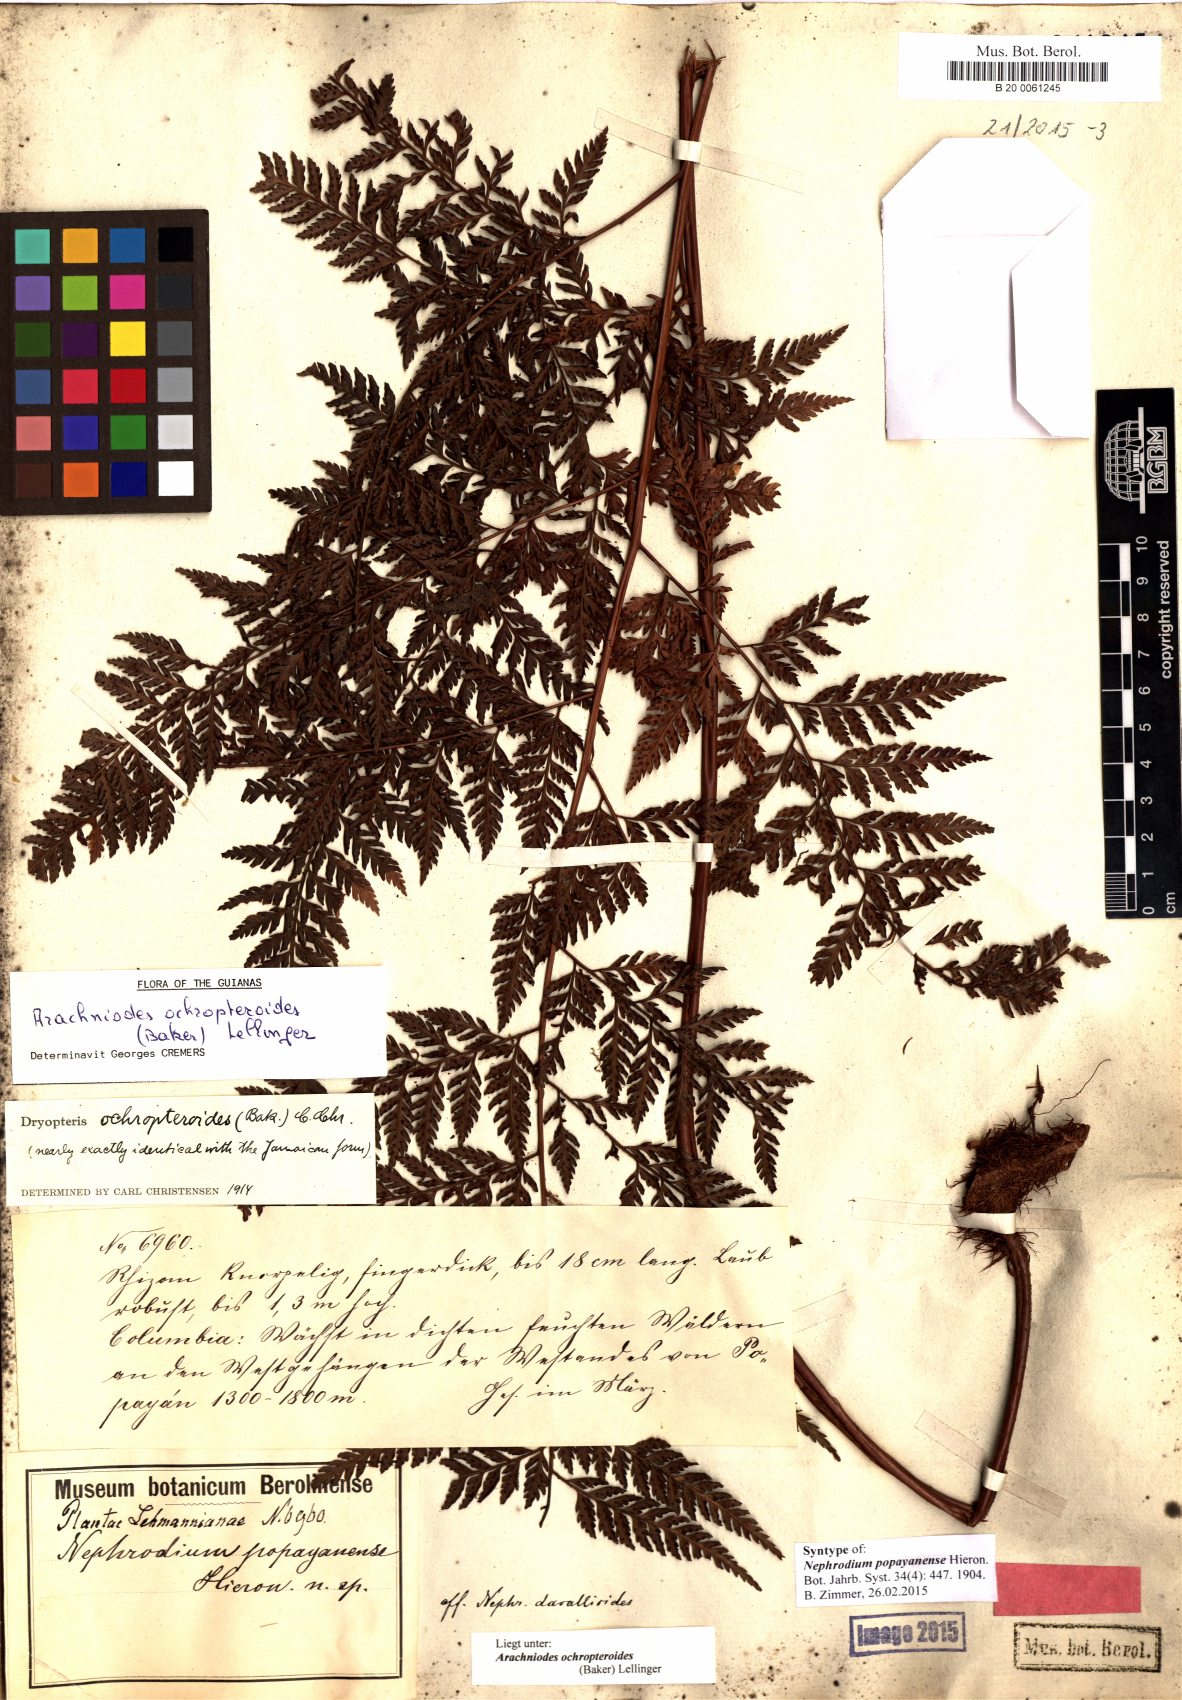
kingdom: Plantae
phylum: Tracheophyta
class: Polypodiopsida
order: Polypodiales
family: Dryopteridaceae
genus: Olfersia
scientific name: Olfersia ochropteroides
